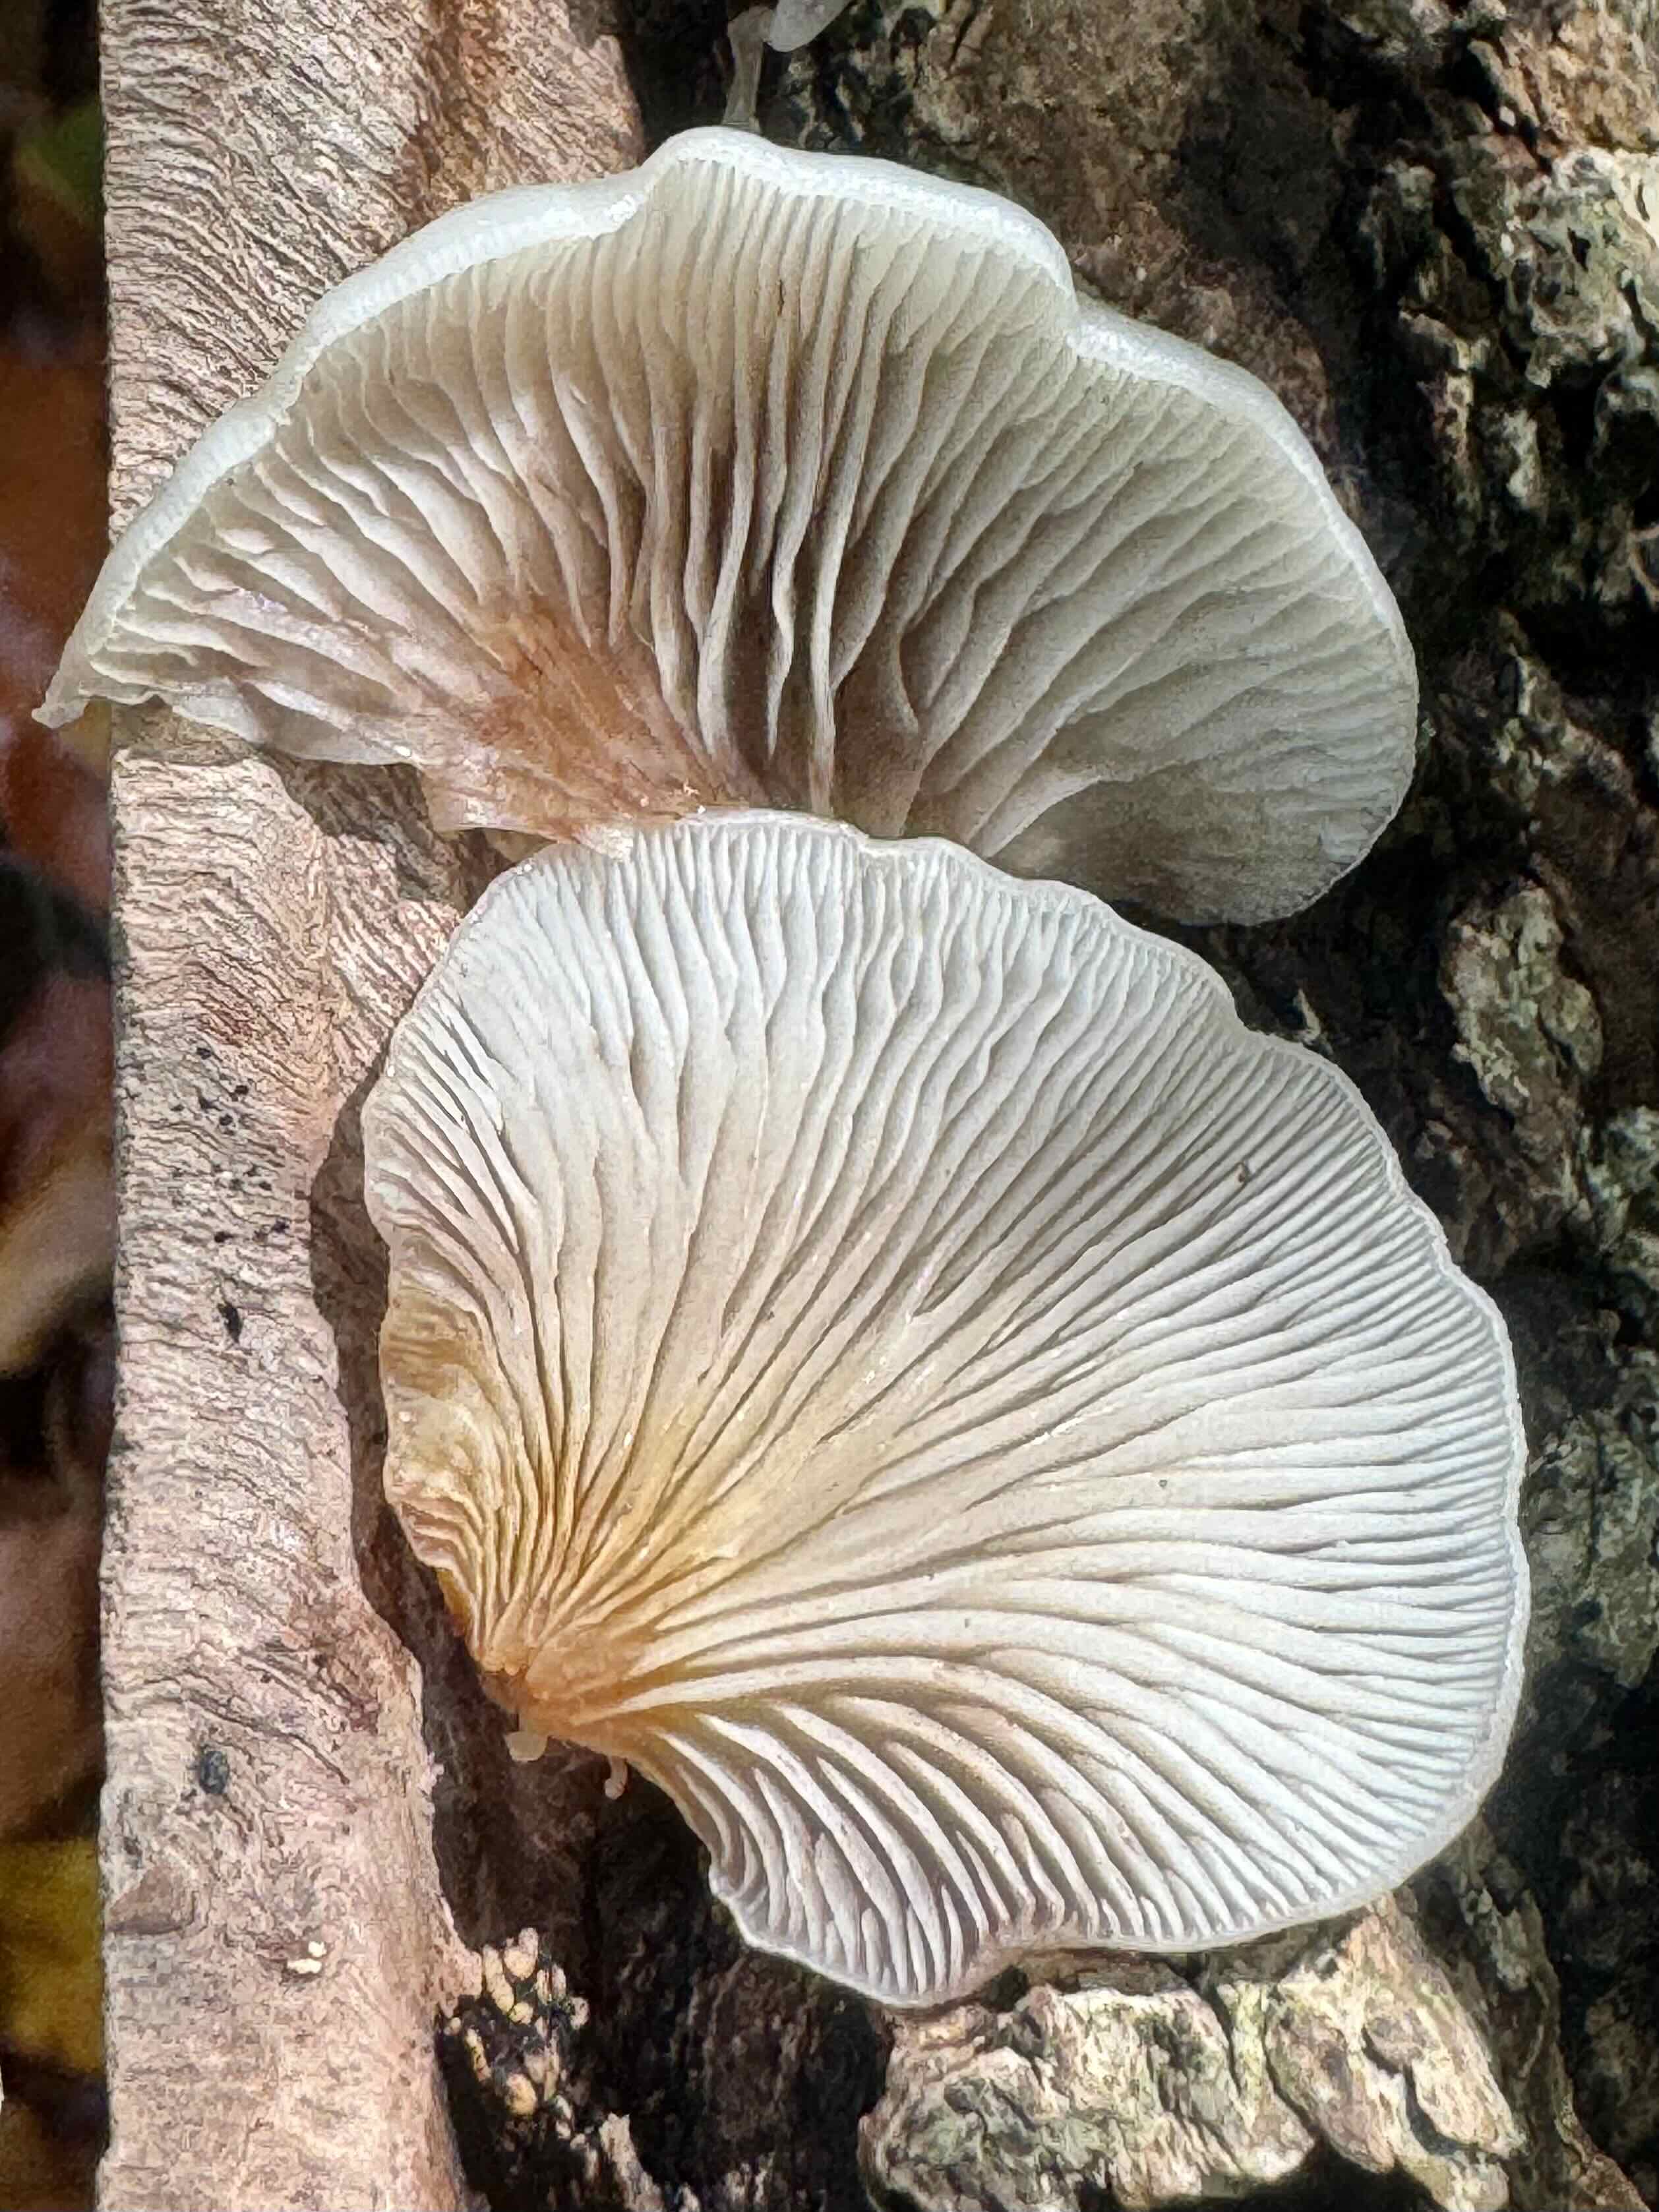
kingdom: Fungi
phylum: Basidiomycota
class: Agaricomycetes
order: Agaricales
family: Crepidotaceae
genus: Crepidotus
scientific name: Crepidotus mollis
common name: blød muslingesvamp
